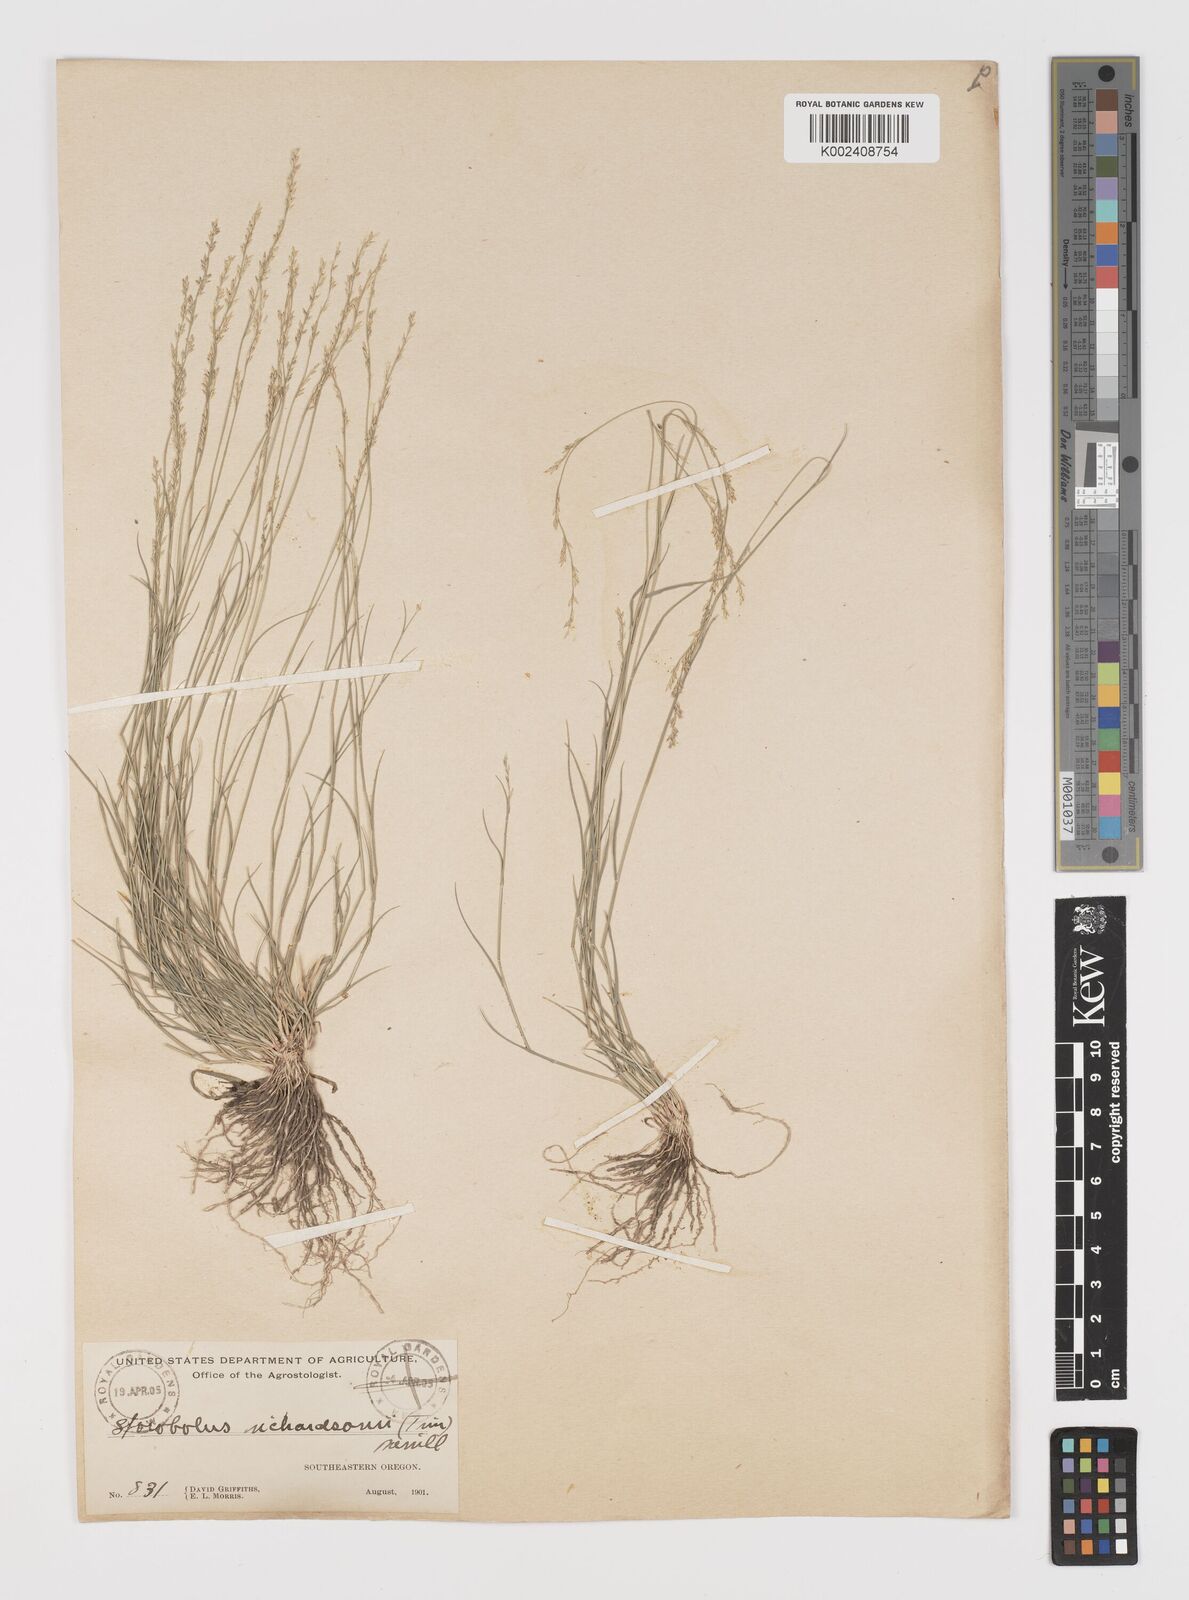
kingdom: Plantae
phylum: Tracheophyta
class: Liliopsida
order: Poales
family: Poaceae
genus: Muhlenbergia
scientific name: Muhlenbergia richardsonis
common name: Mat muhly
